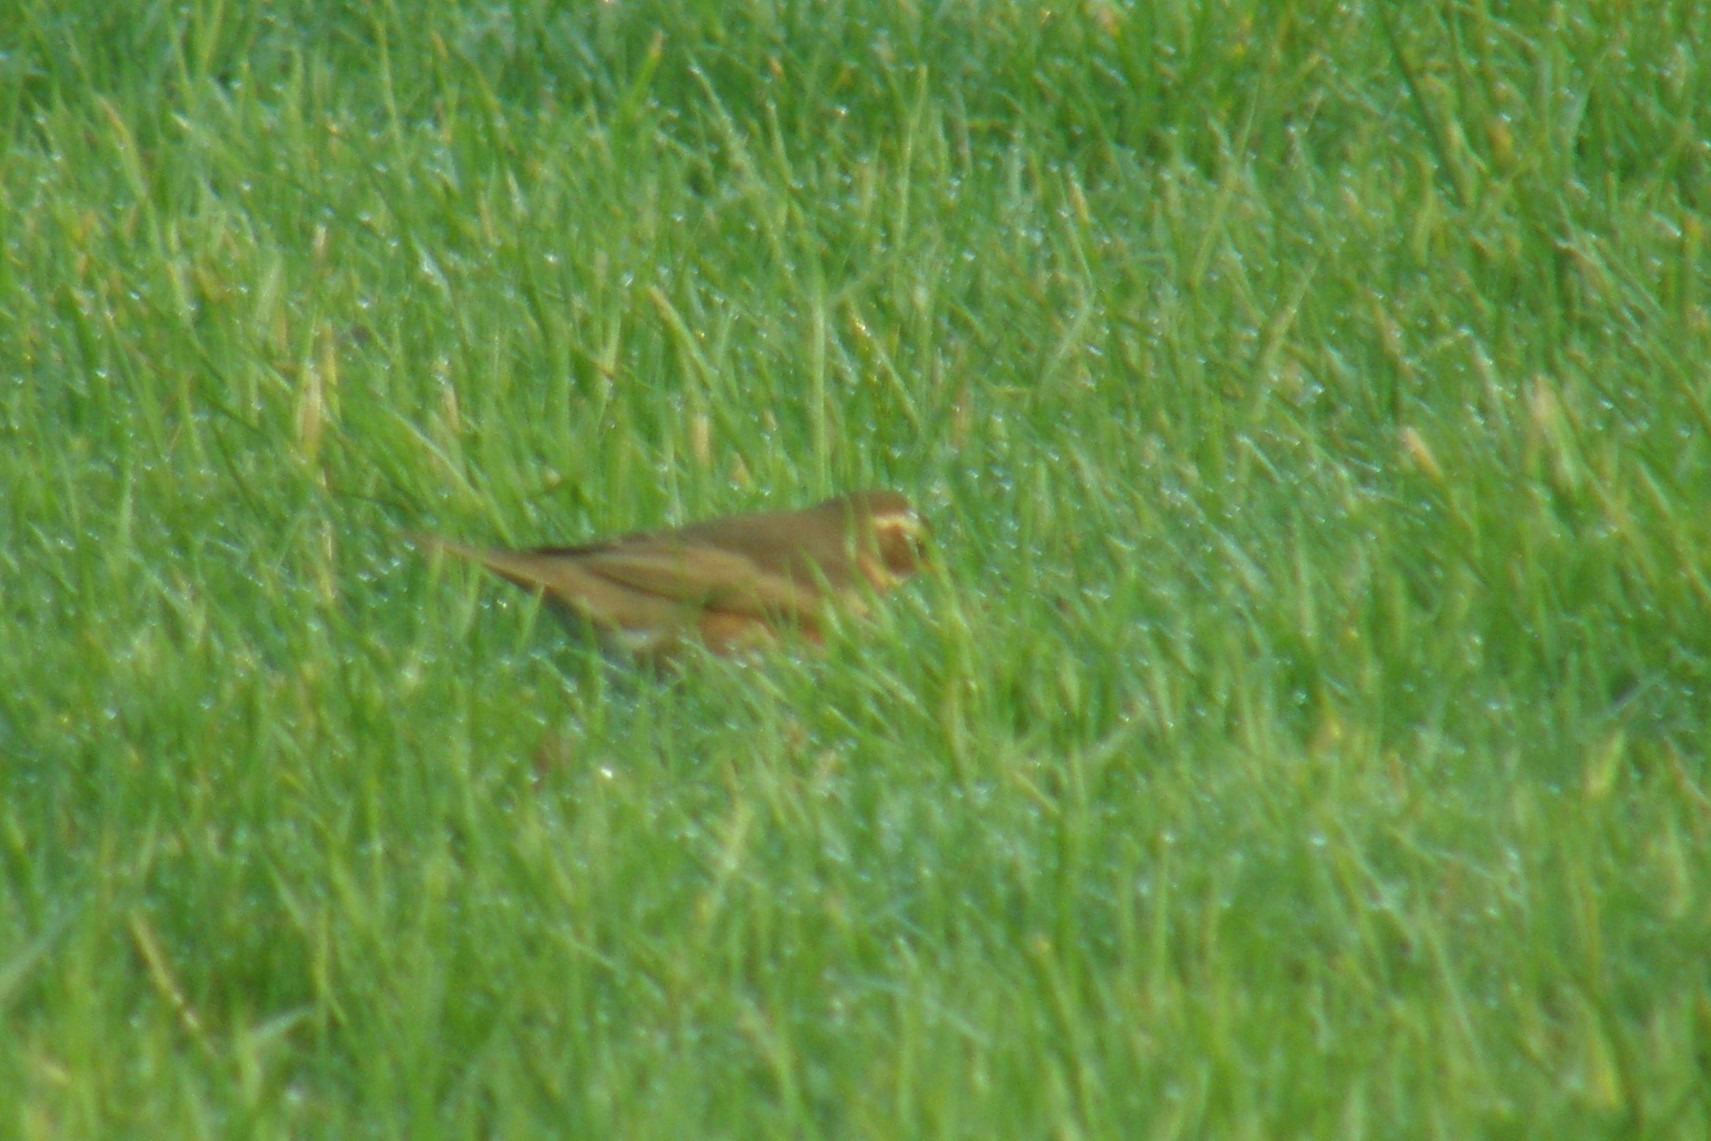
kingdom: Animalia
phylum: Chordata
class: Aves
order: Passeriformes
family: Turdidae
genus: Turdus
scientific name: Turdus iliacus
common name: Vindrossel
